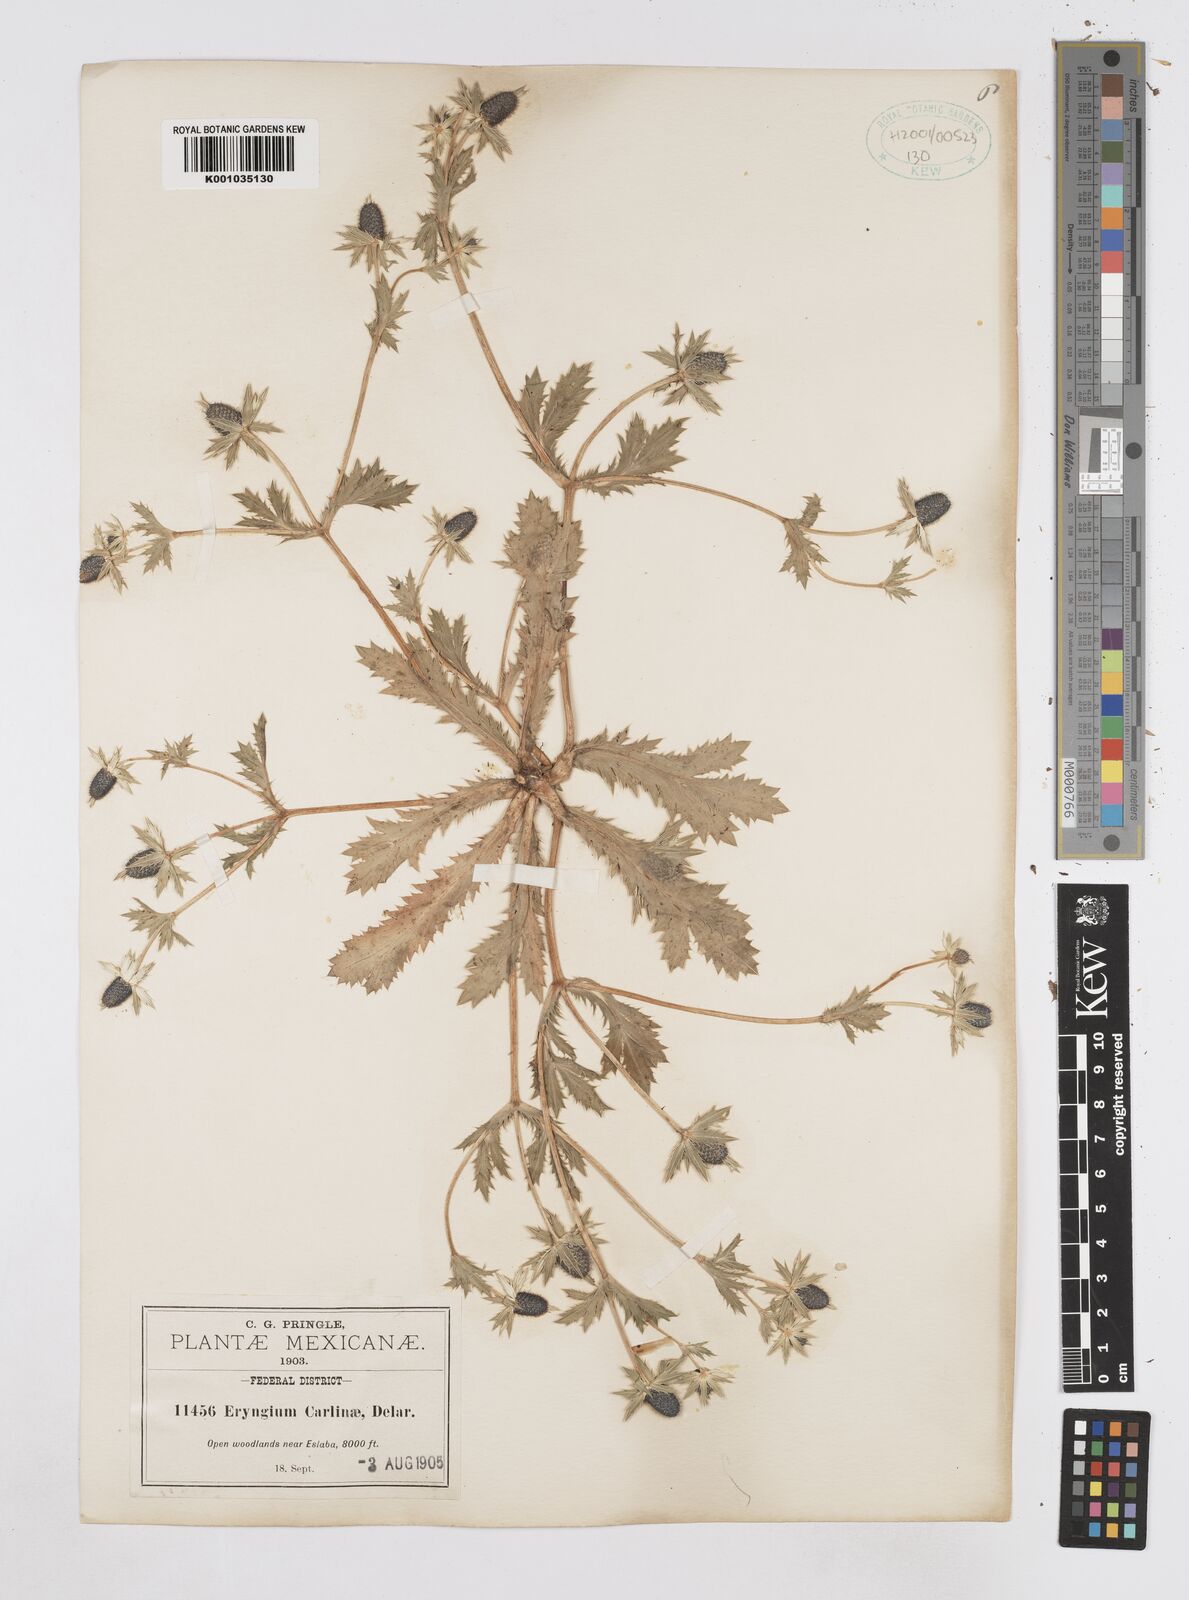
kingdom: Plantae
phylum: Tracheophyta
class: Magnoliopsida
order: Apiales
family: Apiaceae
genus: Eryngium
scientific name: Eryngium carlinae
